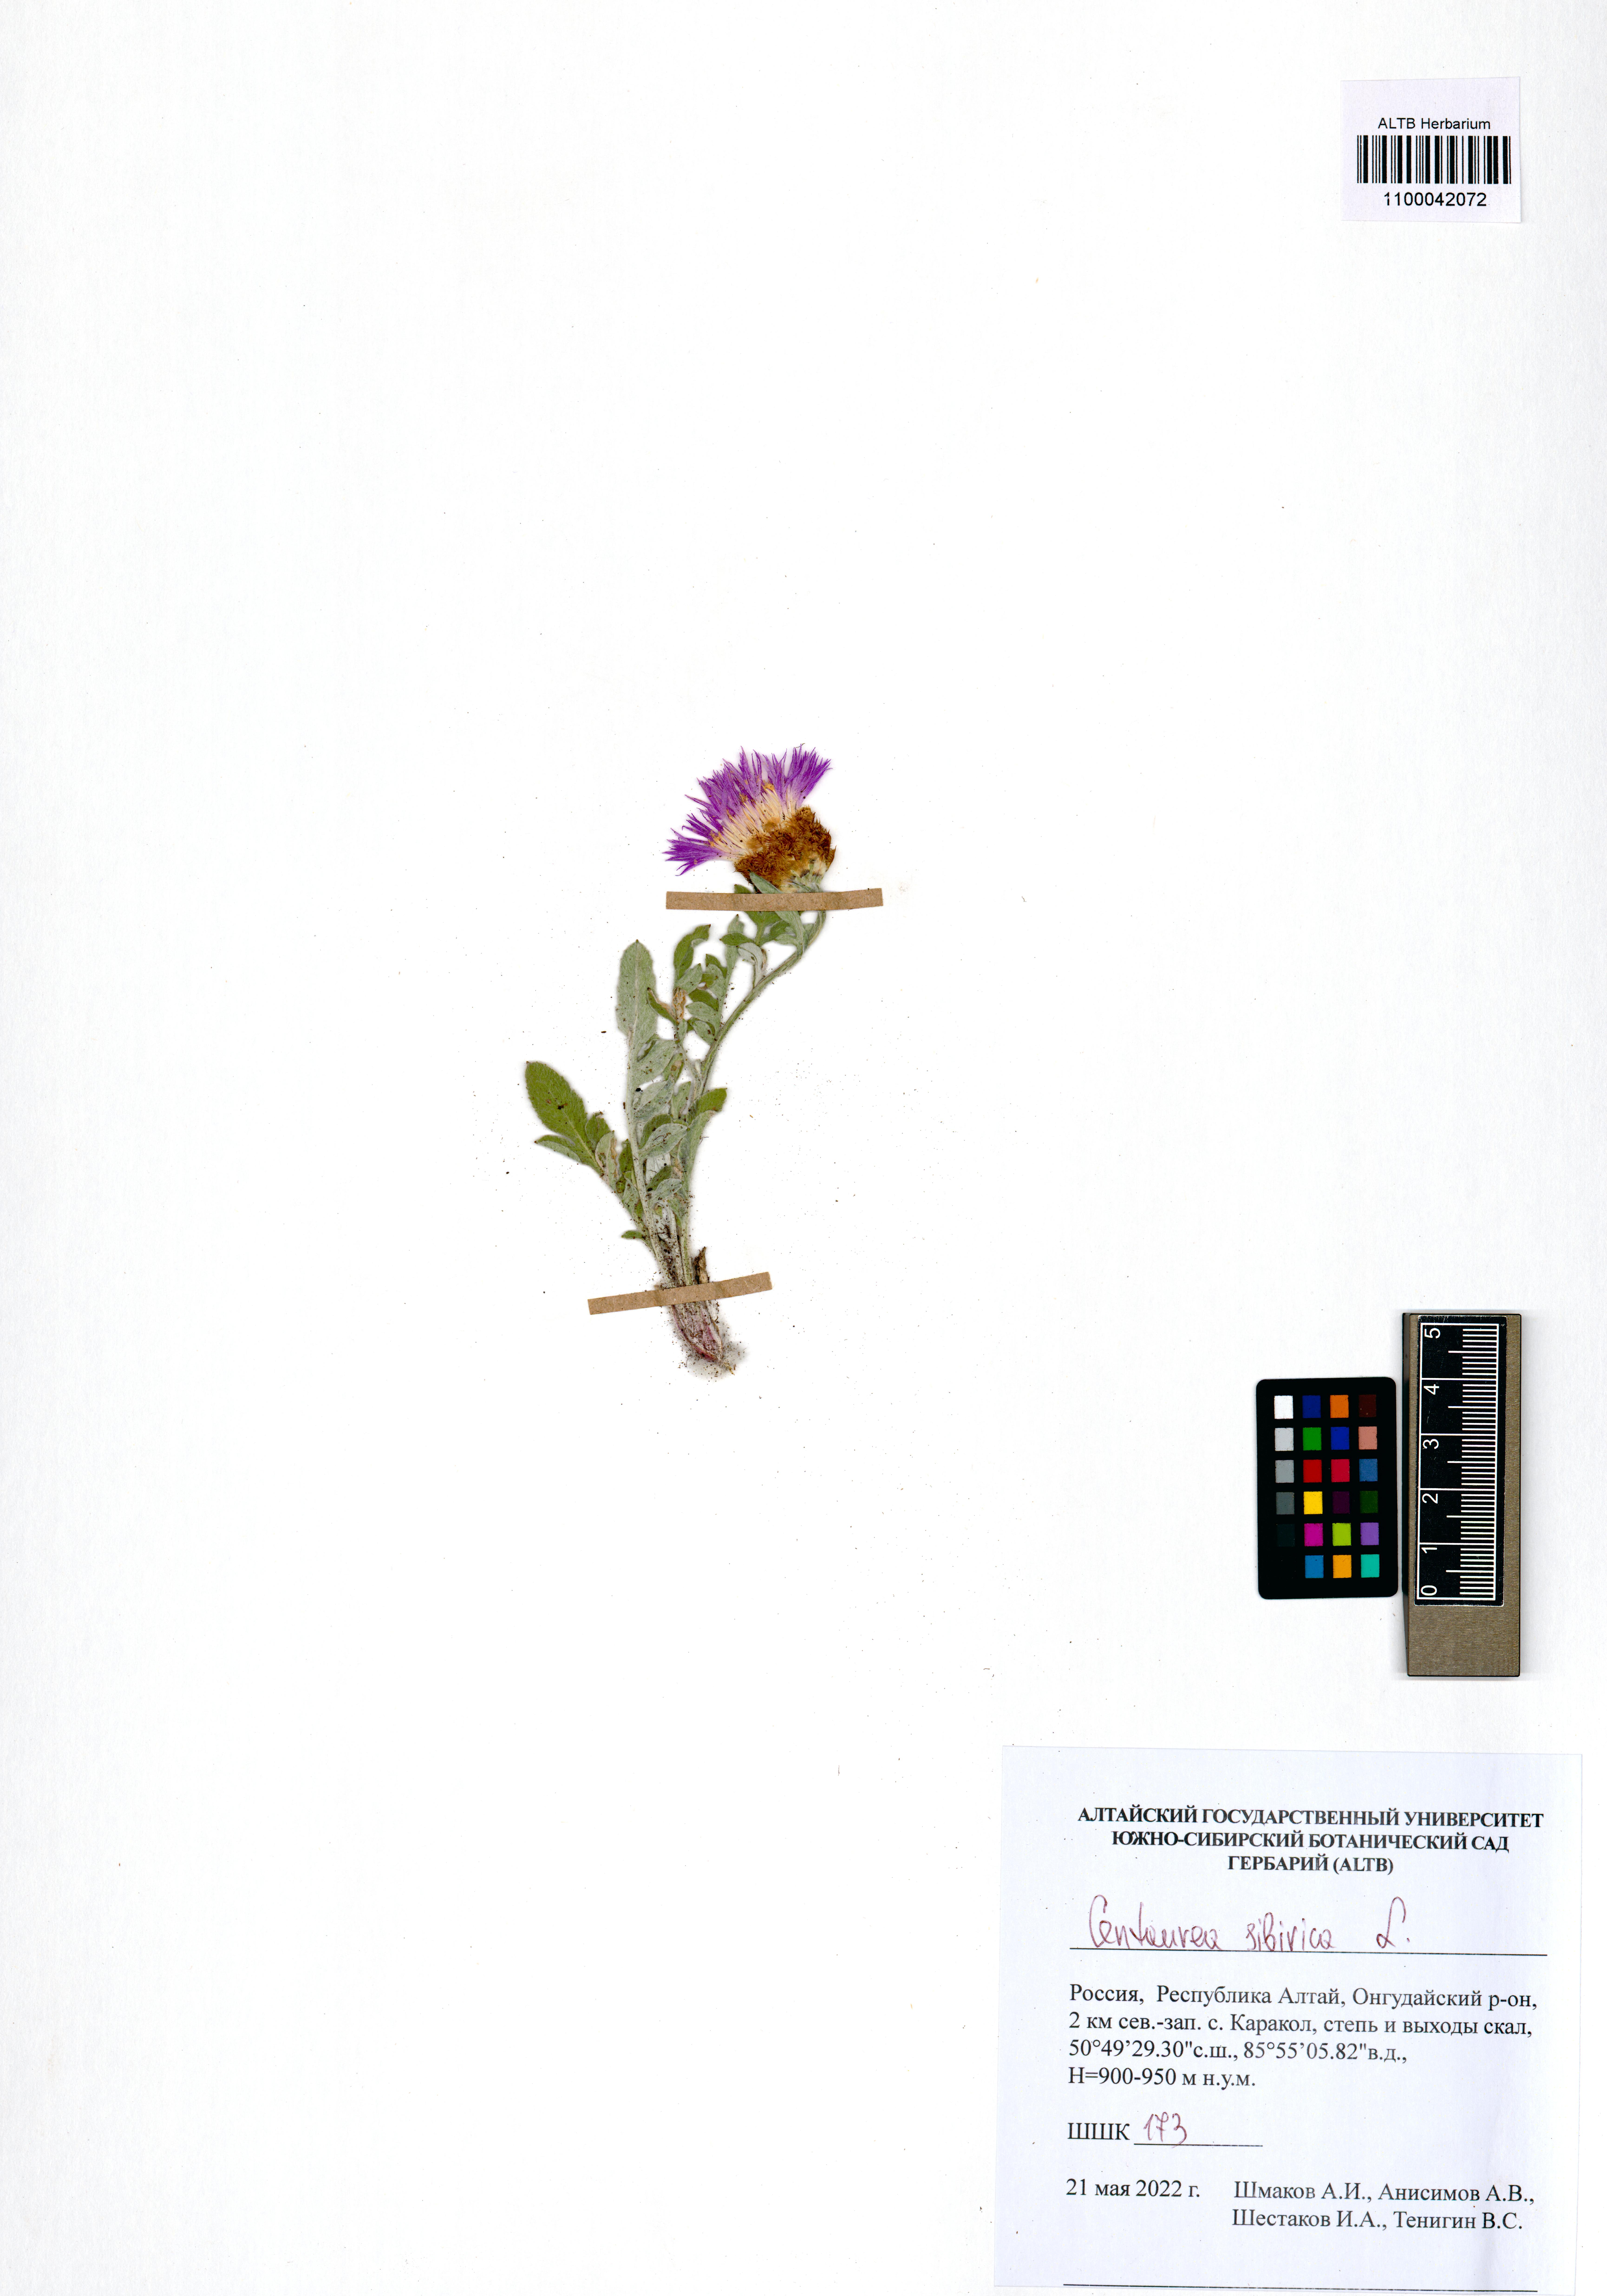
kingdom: Plantae
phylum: Tracheophyta
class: Magnoliopsida
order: Asterales
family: Asteraceae
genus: Psephellus
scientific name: Psephellus sibiricus
